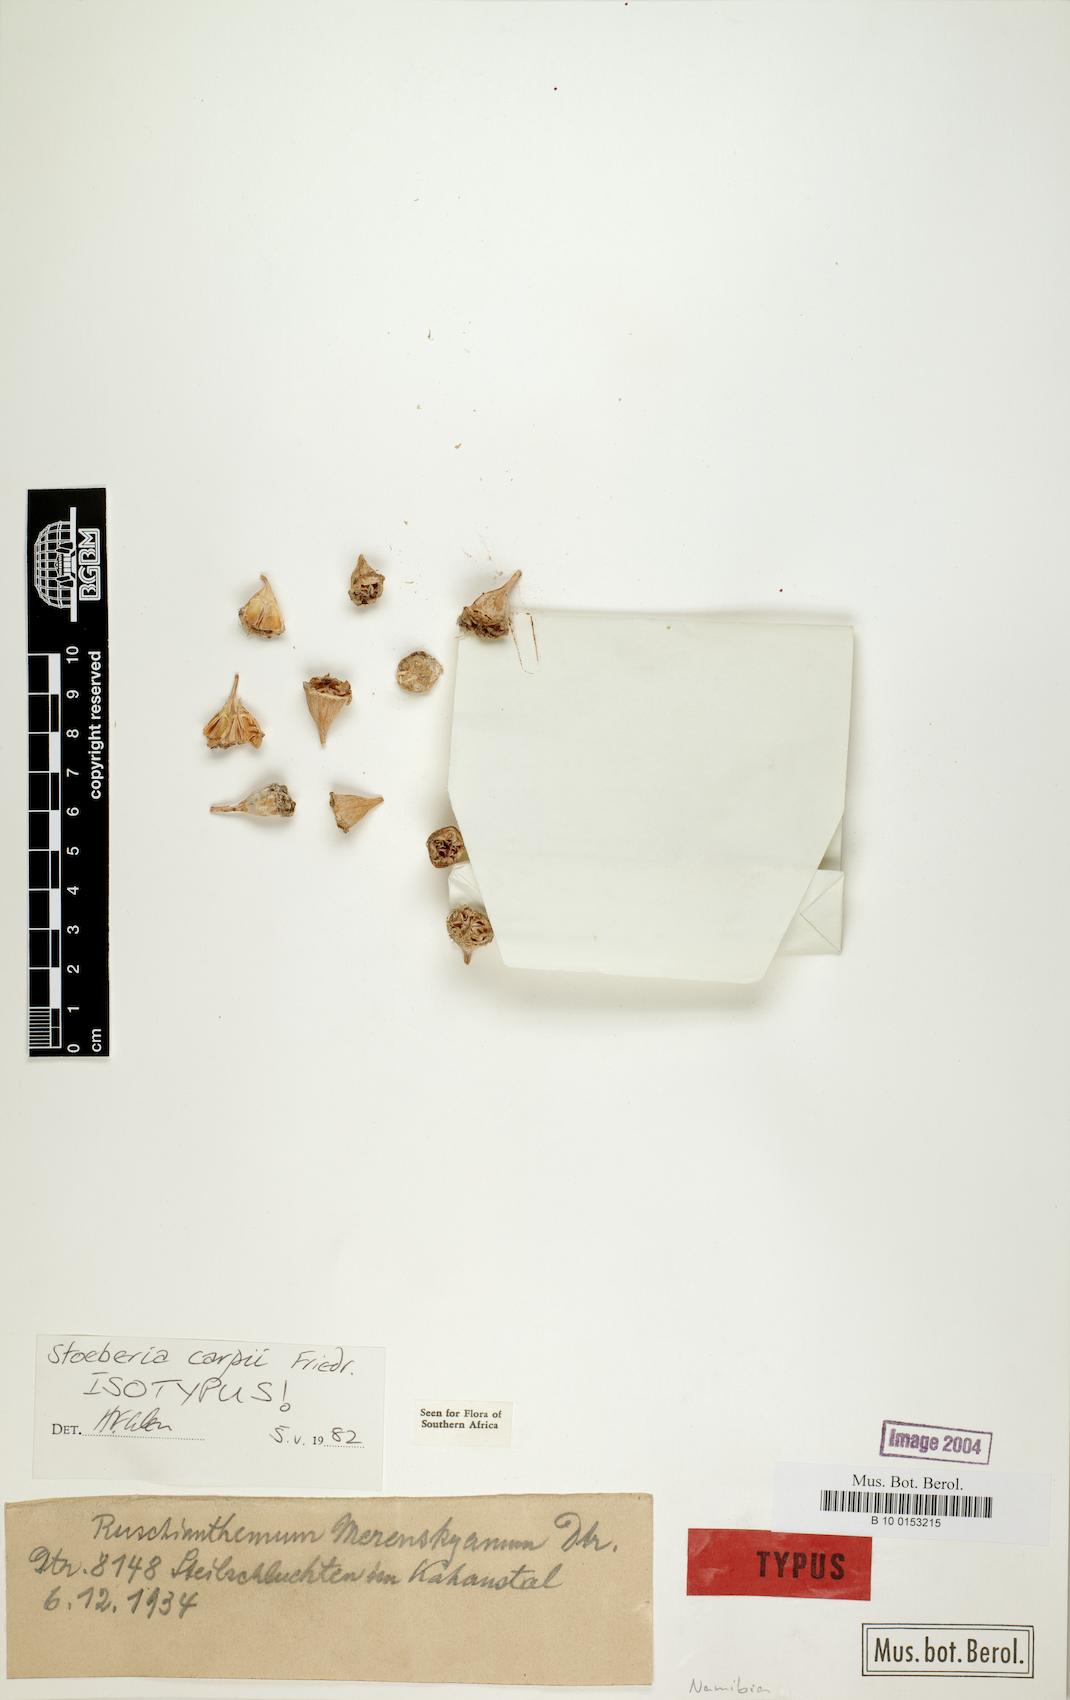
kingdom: Plantae
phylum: Tracheophyta
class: Magnoliopsida
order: Caryophyllales
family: Aizoaceae
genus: Stoeberia
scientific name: Stoeberia carpii
